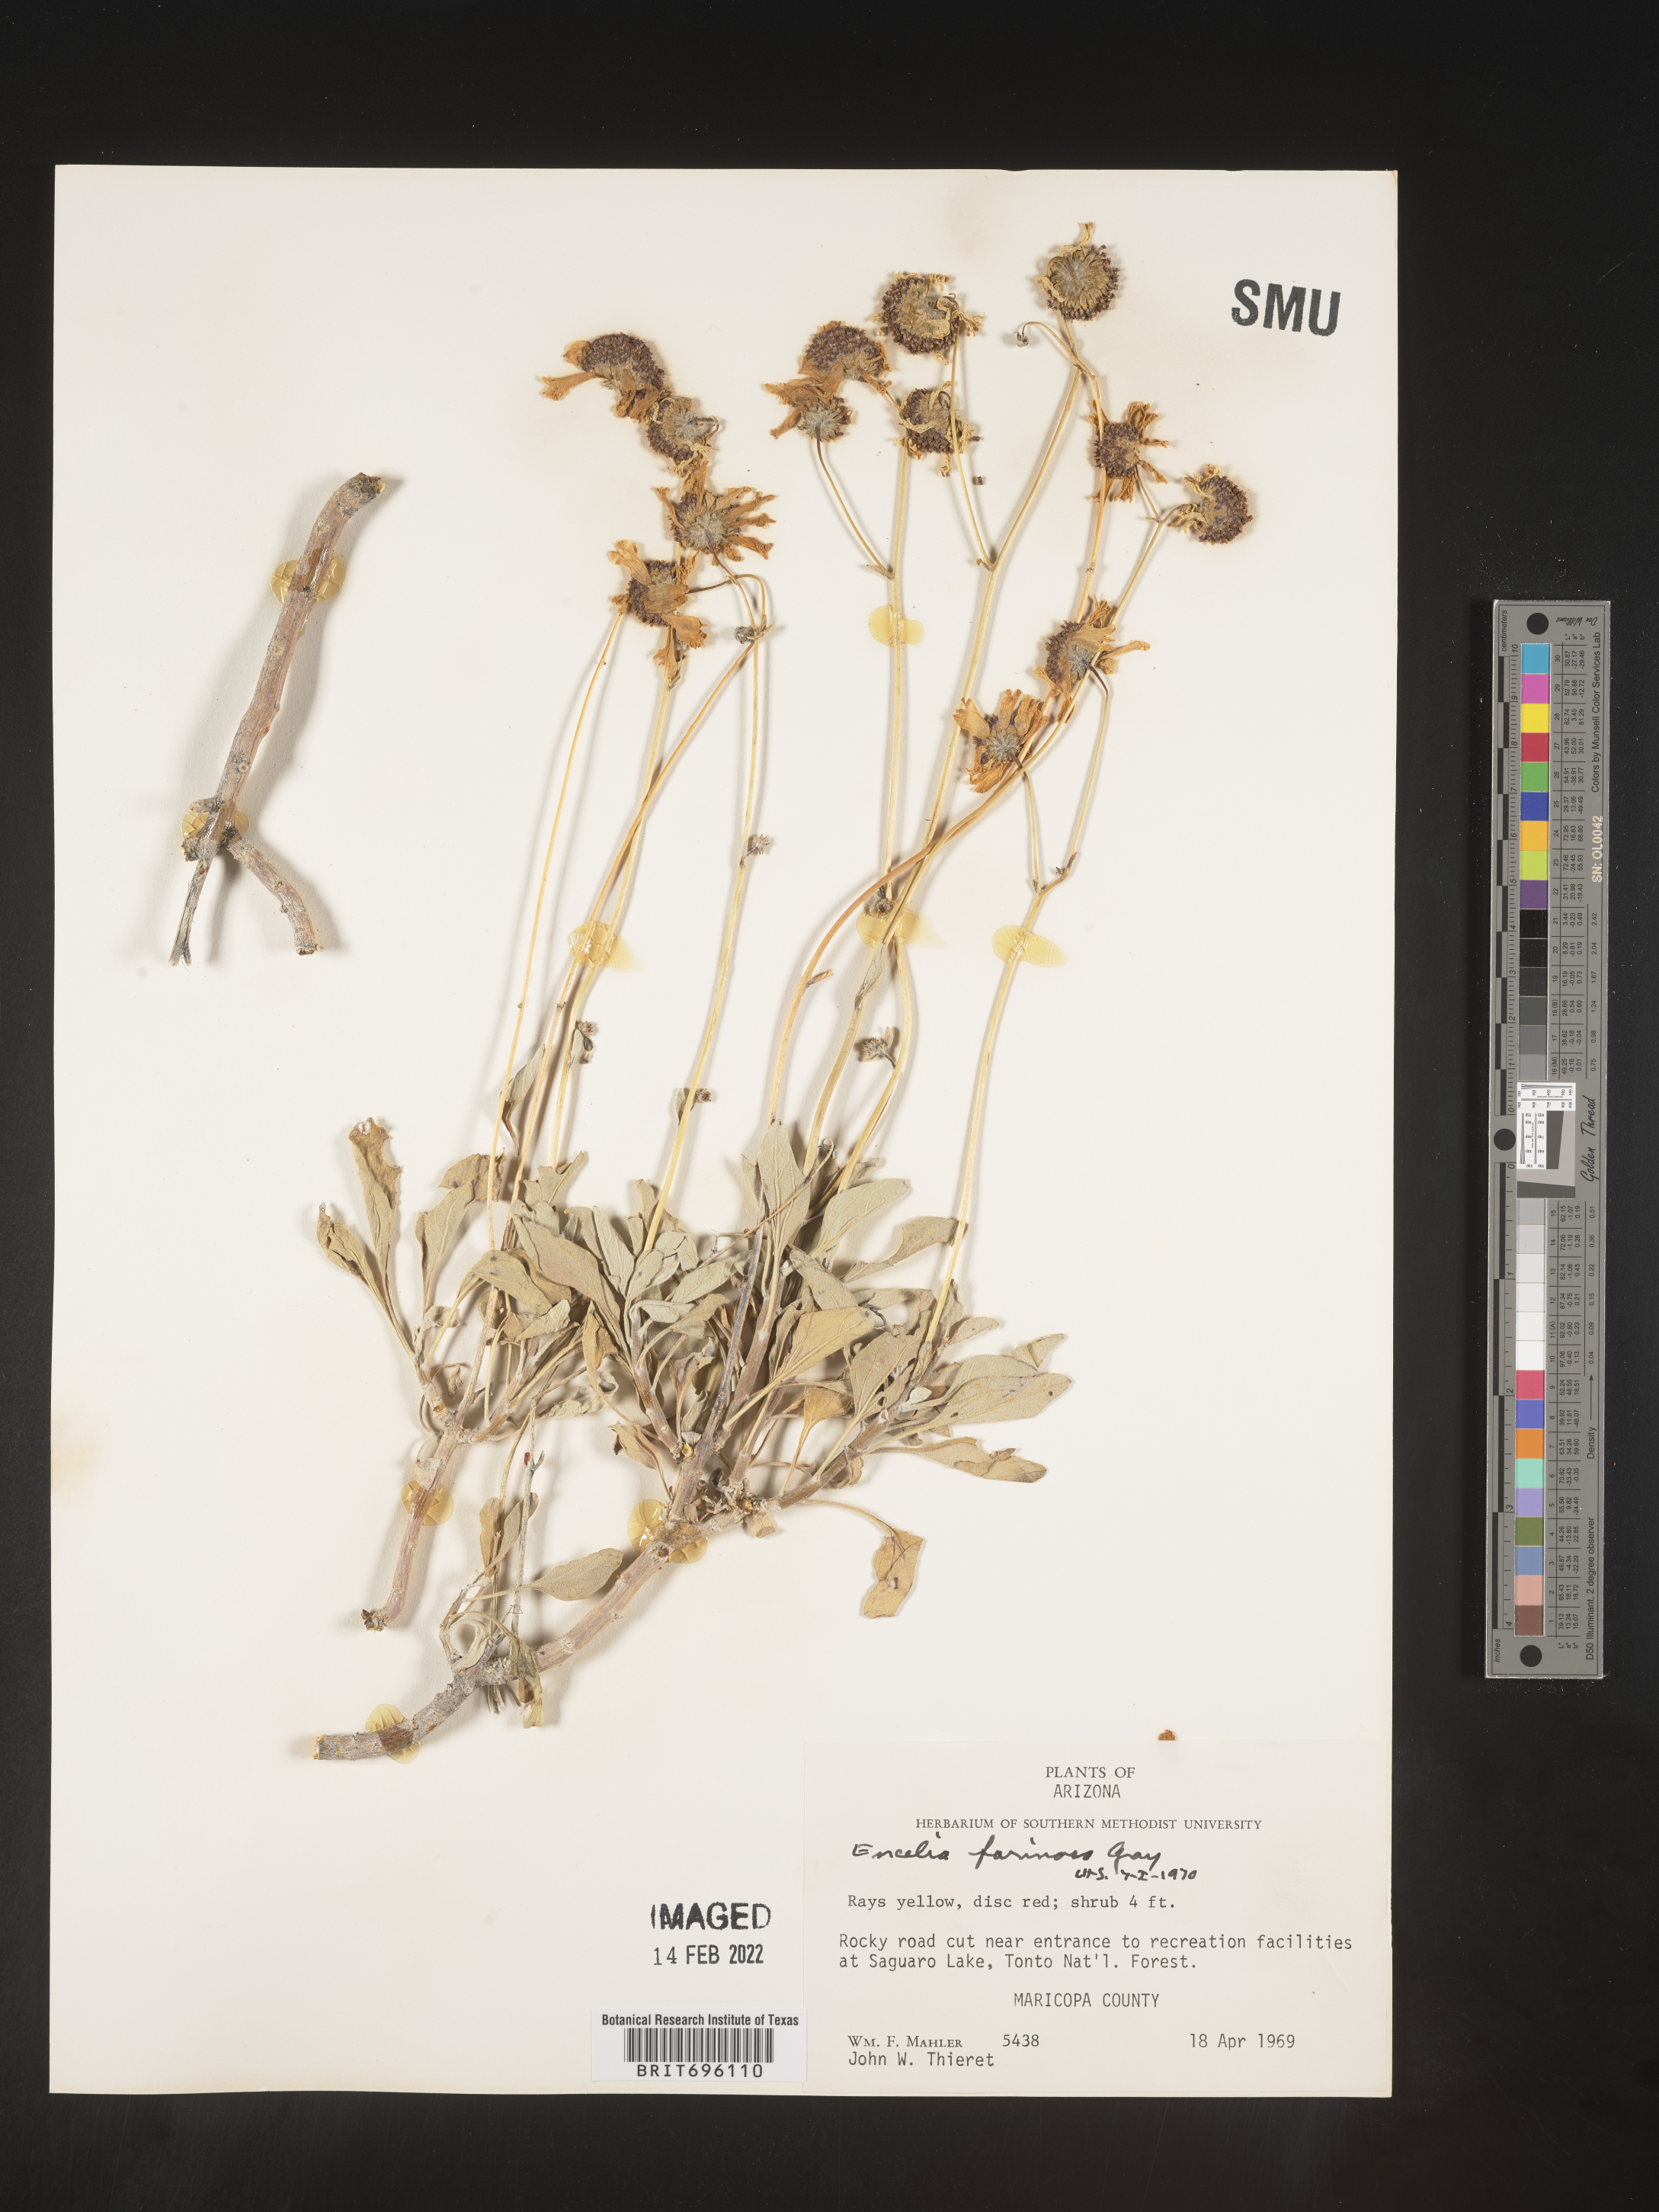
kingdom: Plantae
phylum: Tracheophyta
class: Magnoliopsida
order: Asterales
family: Asteraceae
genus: Encelia
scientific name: Encelia farinosa
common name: Brittlebush
